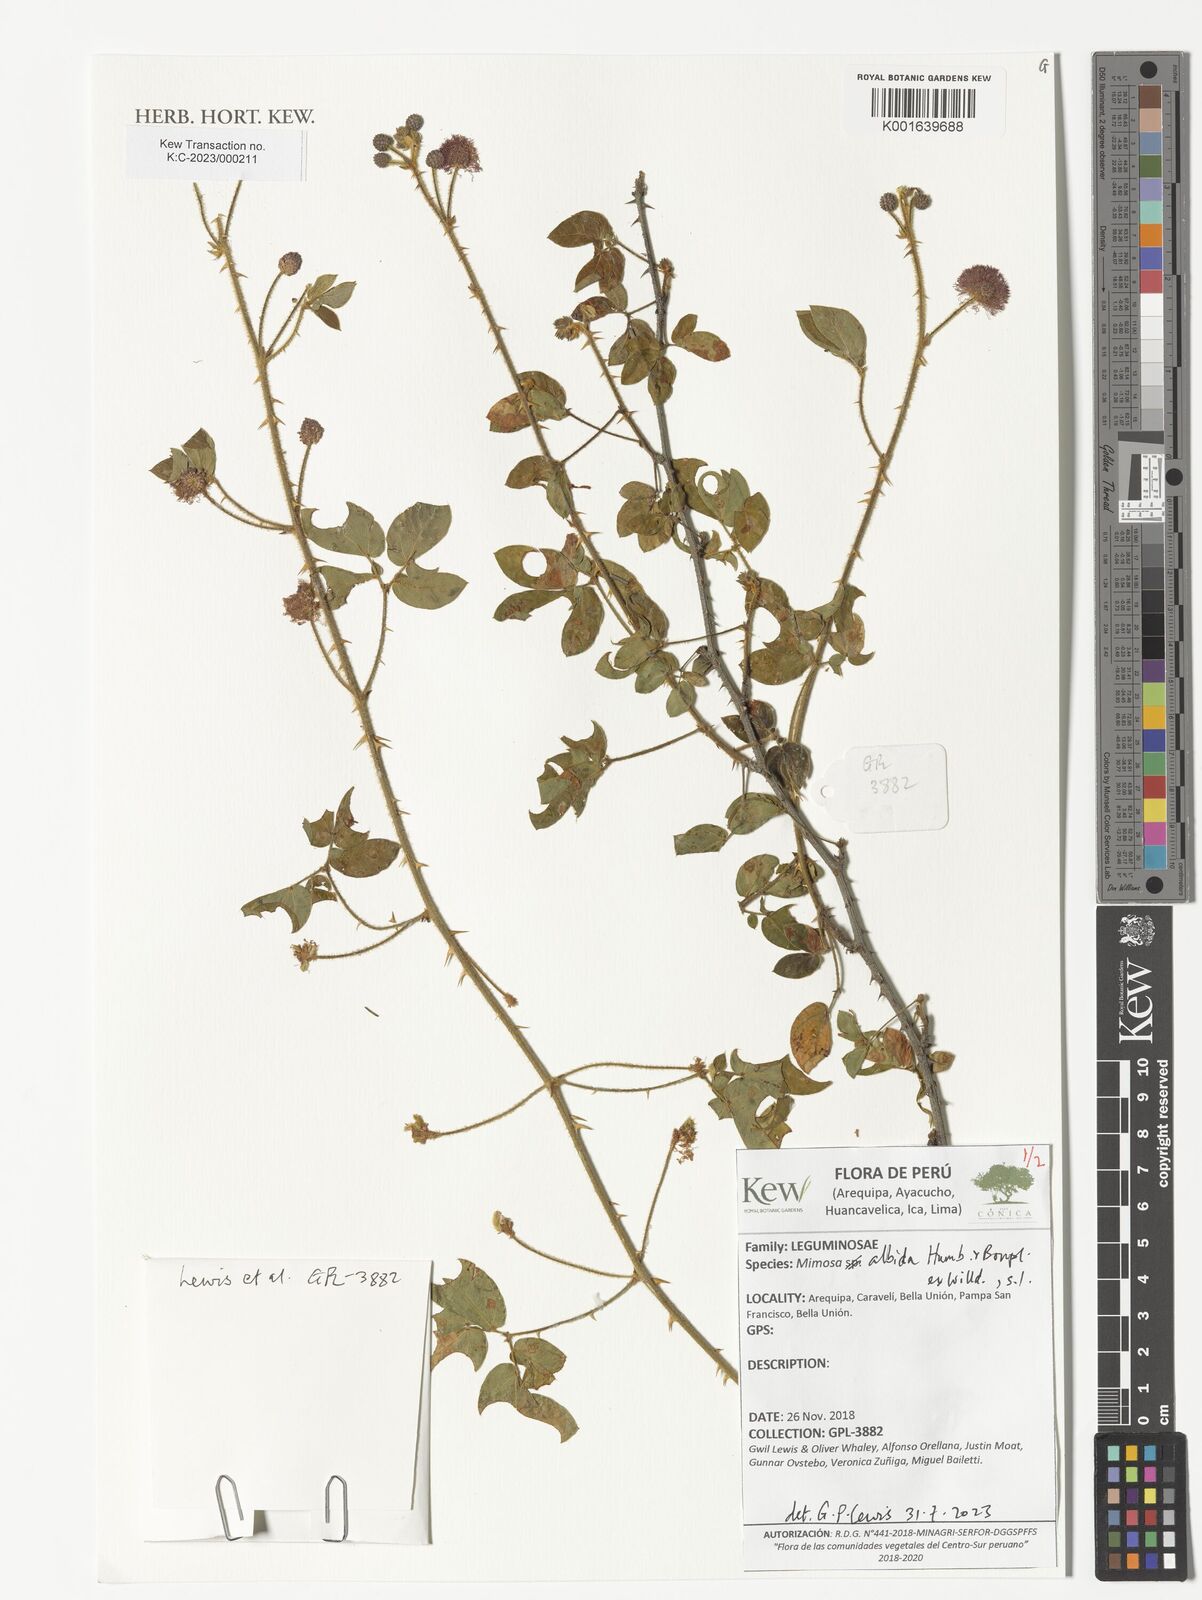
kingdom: Plantae
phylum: Tracheophyta
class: Magnoliopsida
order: Fabales
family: Fabaceae
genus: Mimosa
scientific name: Mimosa albida
